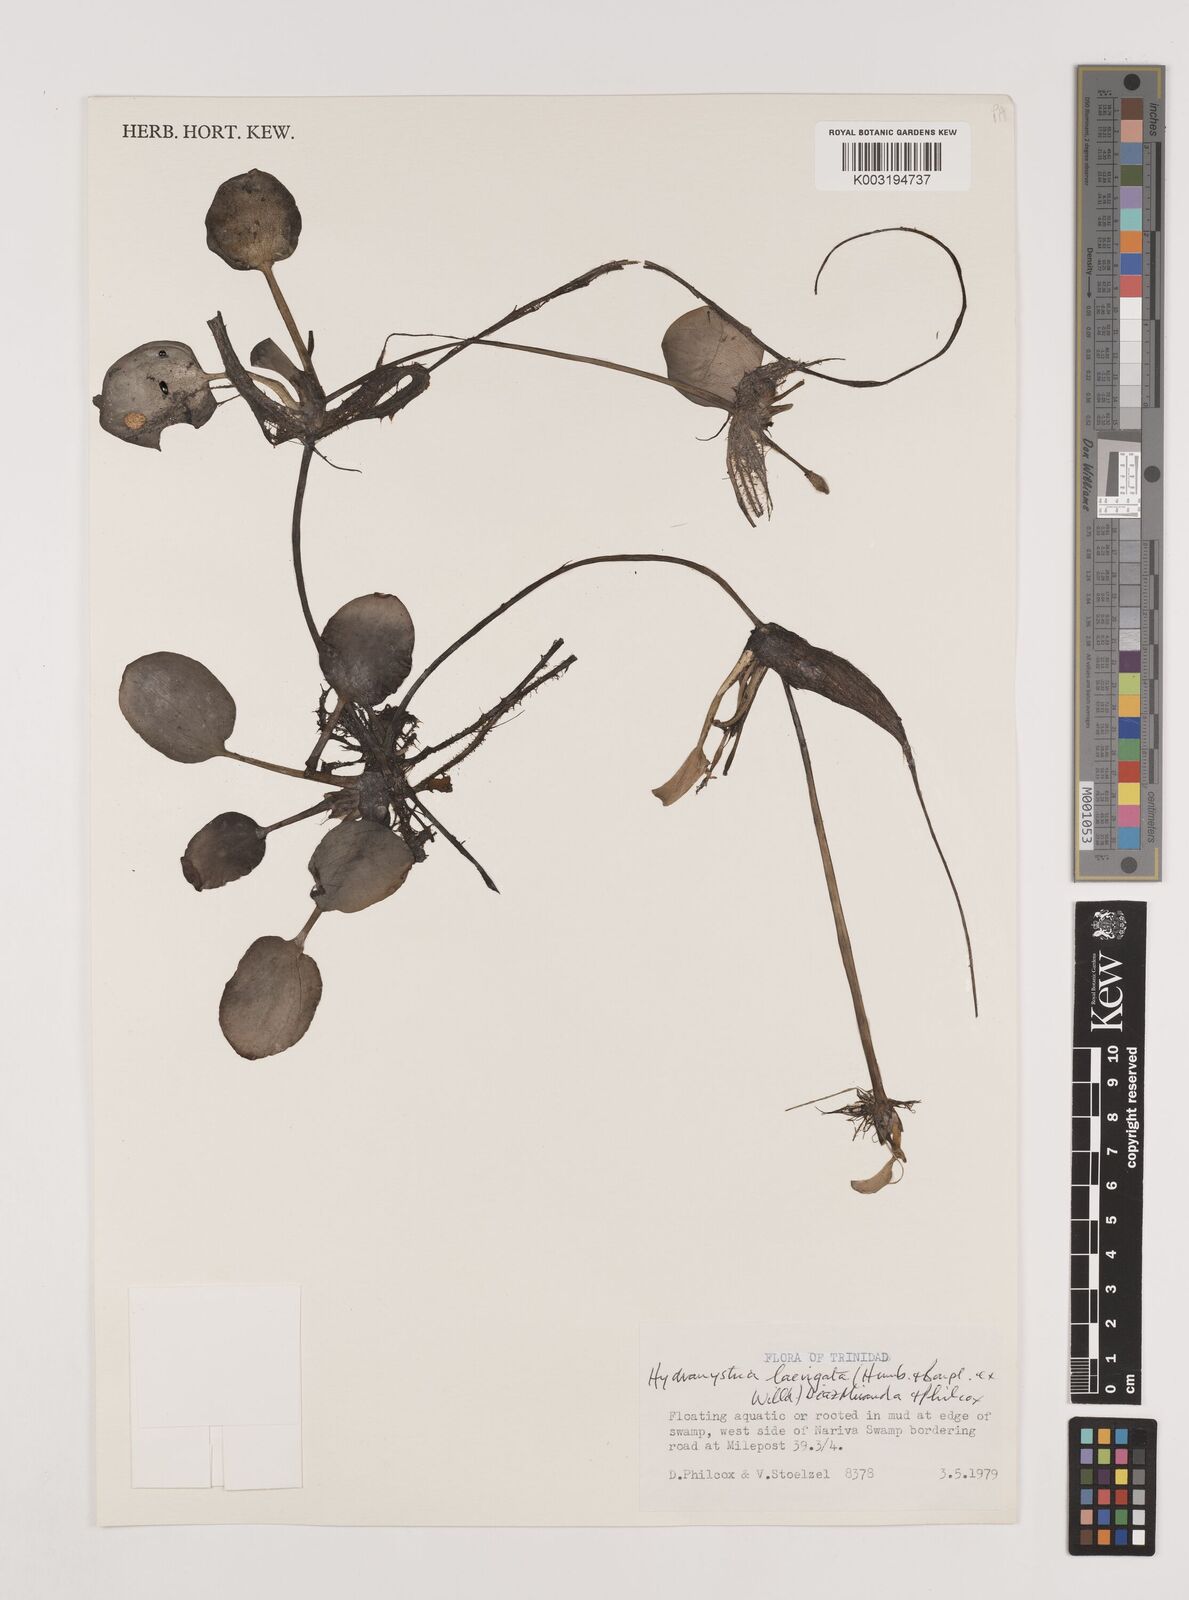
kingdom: Plantae
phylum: Tracheophyta
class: Liliopsida
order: Alismatales
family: Hydrocharitaceae
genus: Hydrocharis
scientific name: Hydrocharis laevigata
